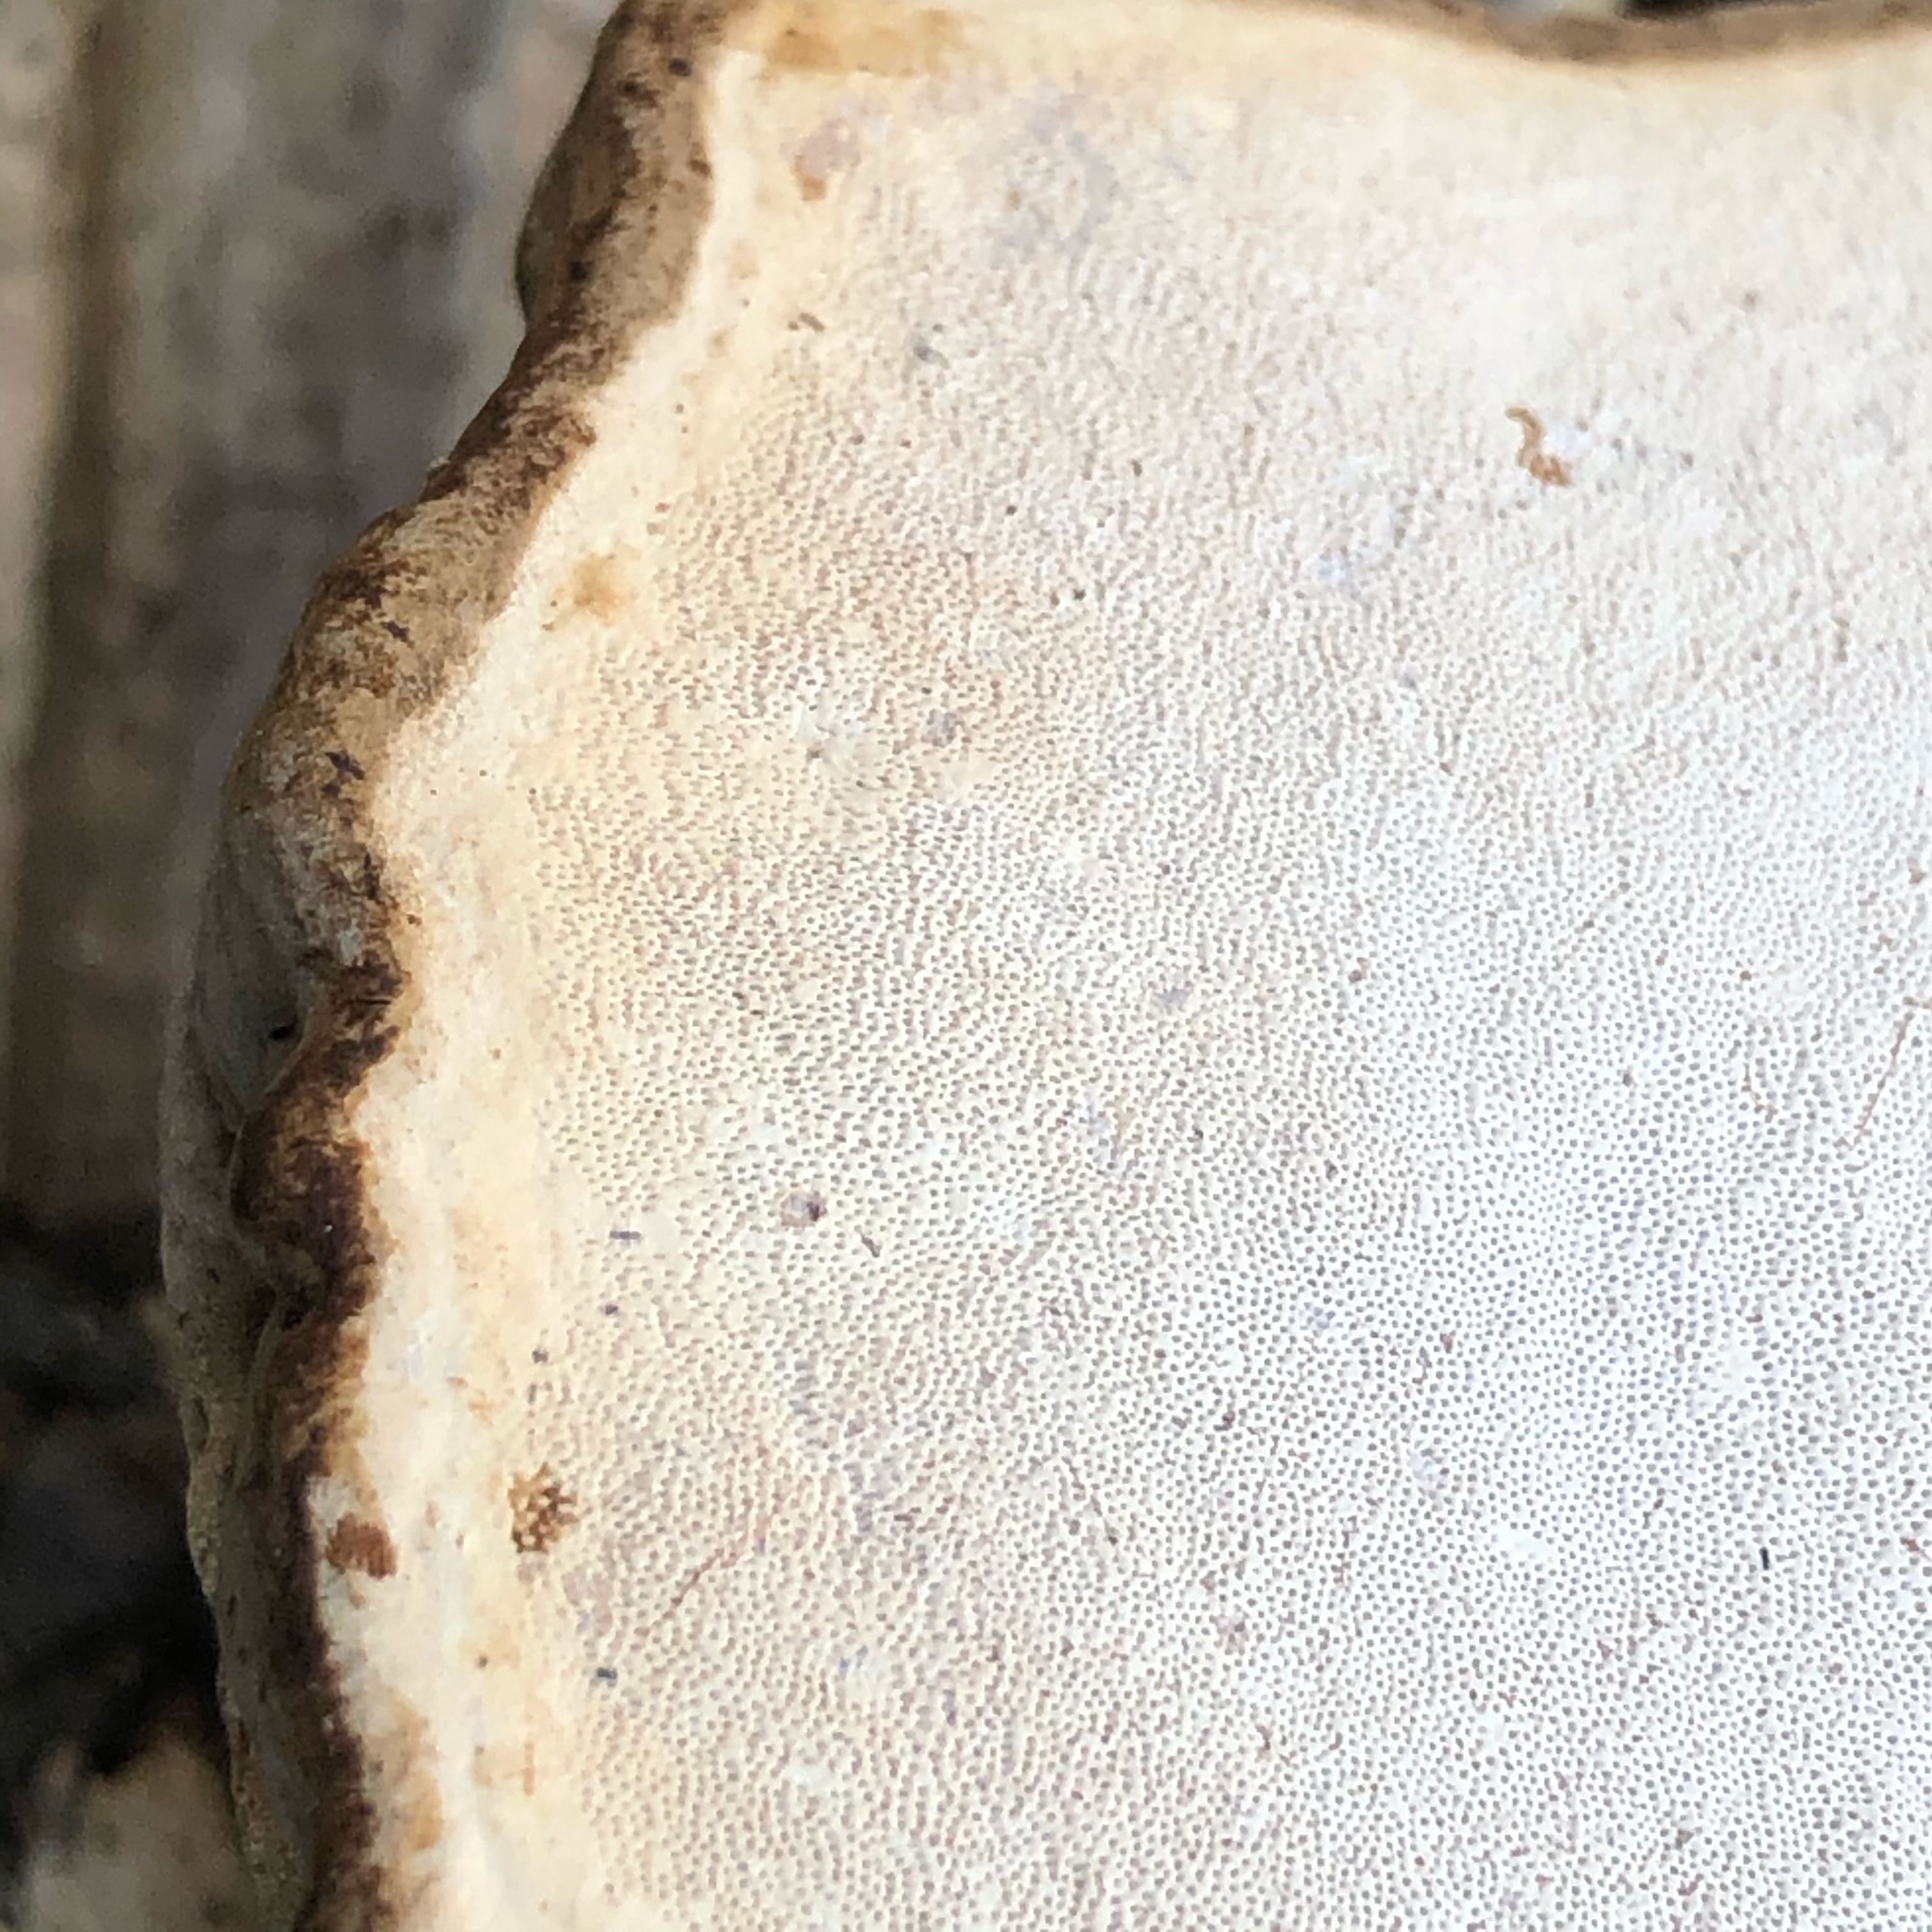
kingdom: Fungi
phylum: Basidiomycota
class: Agaricomycetes
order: Polyporales
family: Polyporaceae
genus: Ganoderma
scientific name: Ganoderma applanatum
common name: flad lakporesvamp
